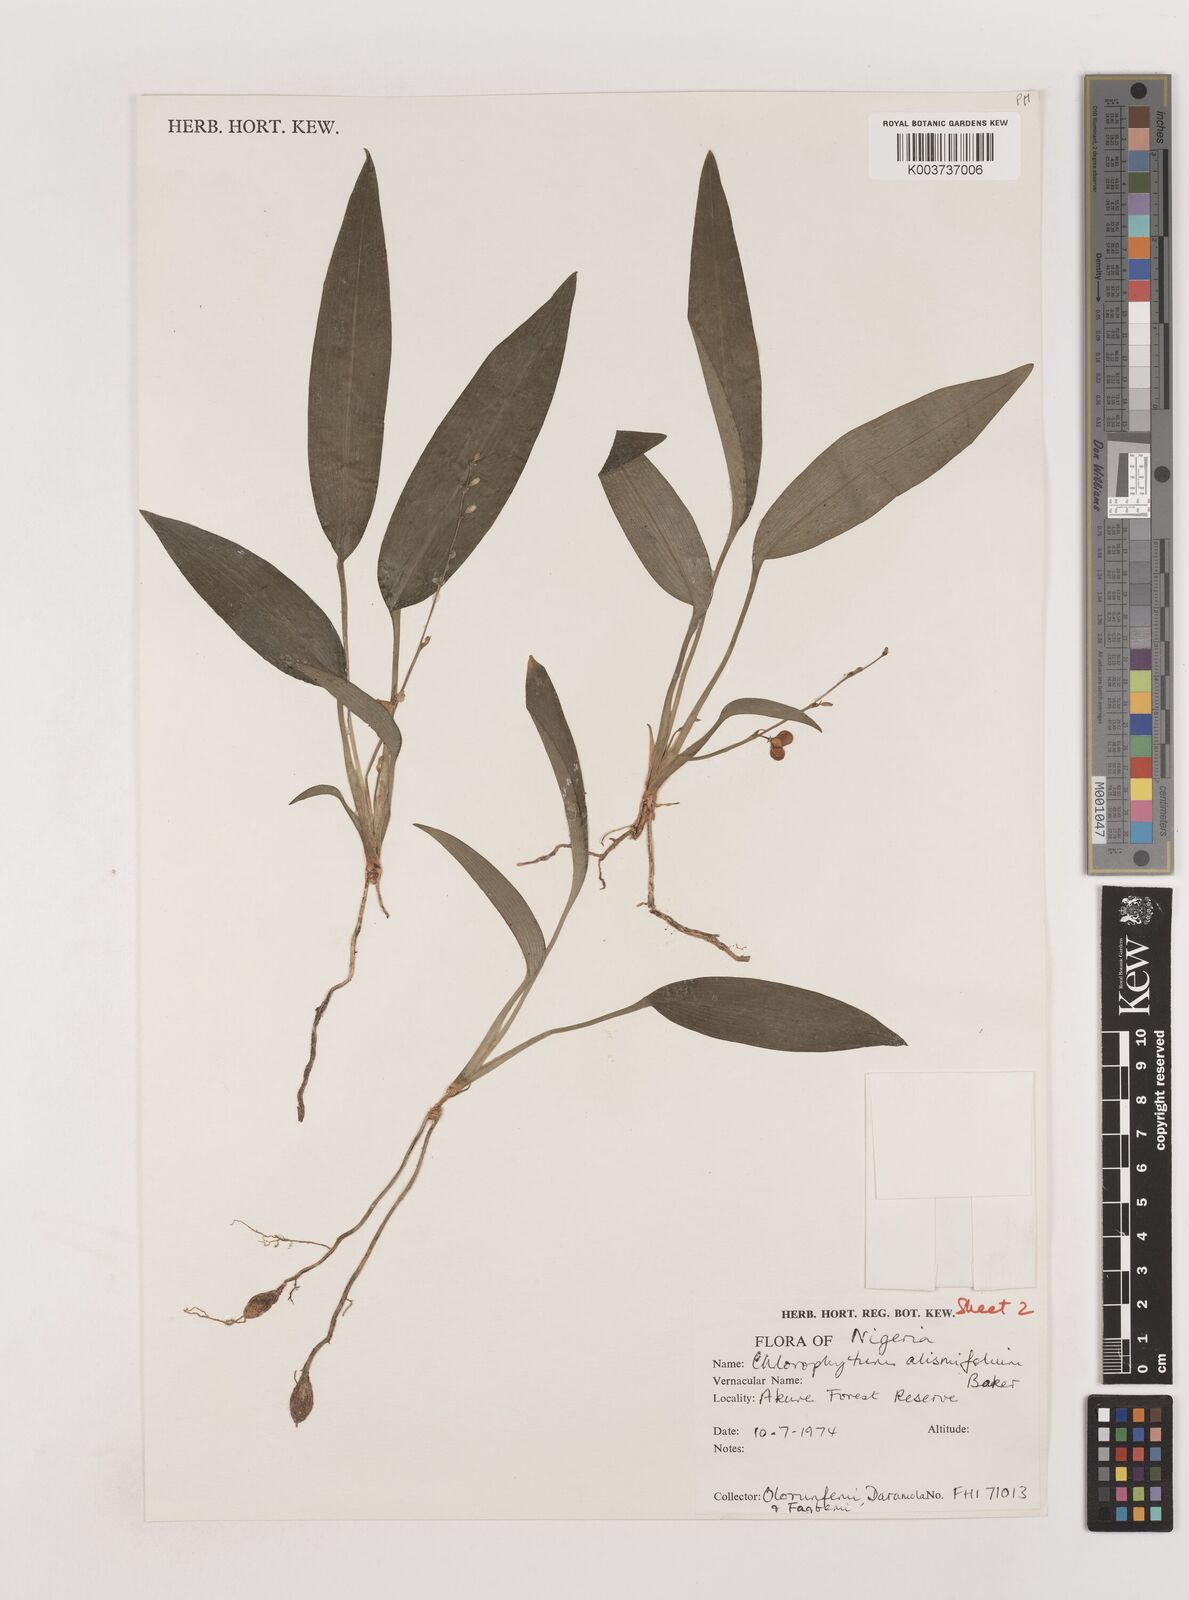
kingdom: Plantae
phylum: Tracheophyta
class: Liliopsida
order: Asparagales
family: Asparagaceae
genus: Chlorophytum
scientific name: Chlorophytum alismifolium
